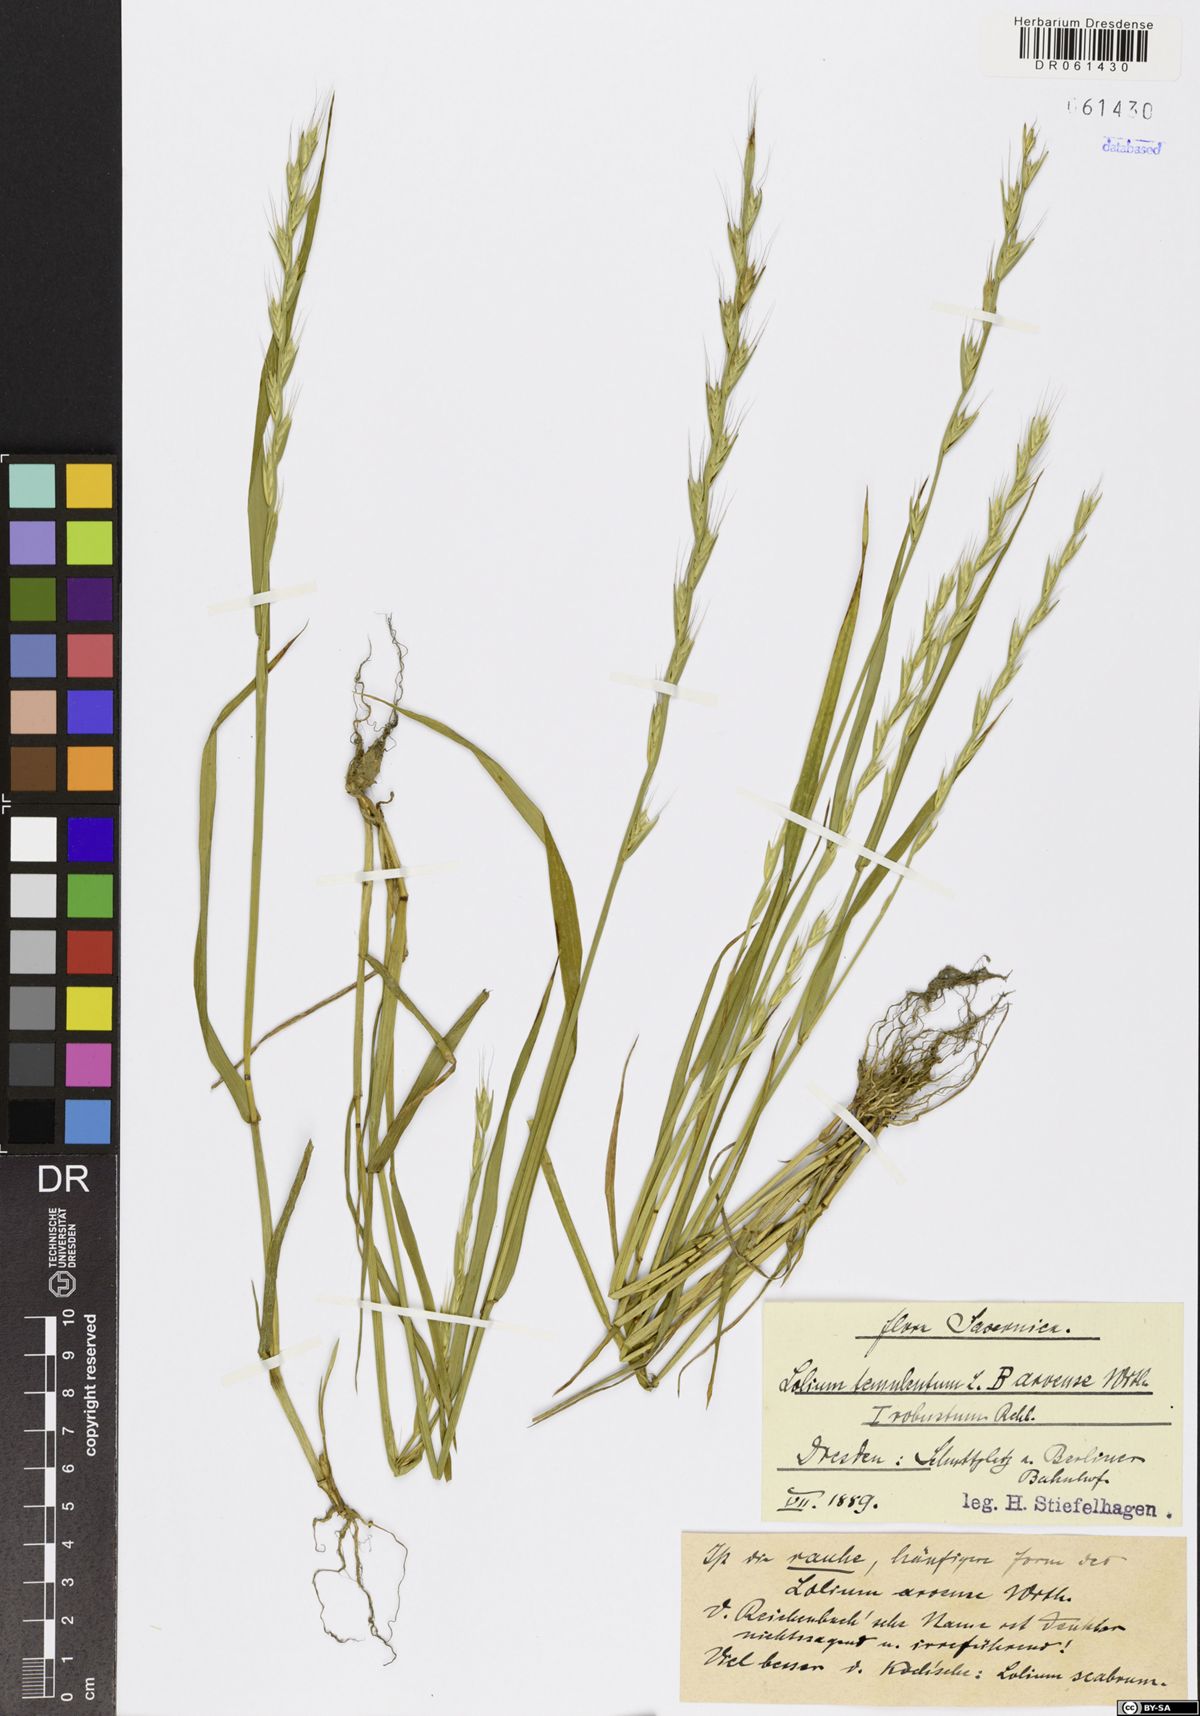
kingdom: Plantae
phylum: Tracheophyta
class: Liliopsida
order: Poales
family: Poaceae
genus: Lolium
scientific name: Lolium temulentum
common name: Darnel
